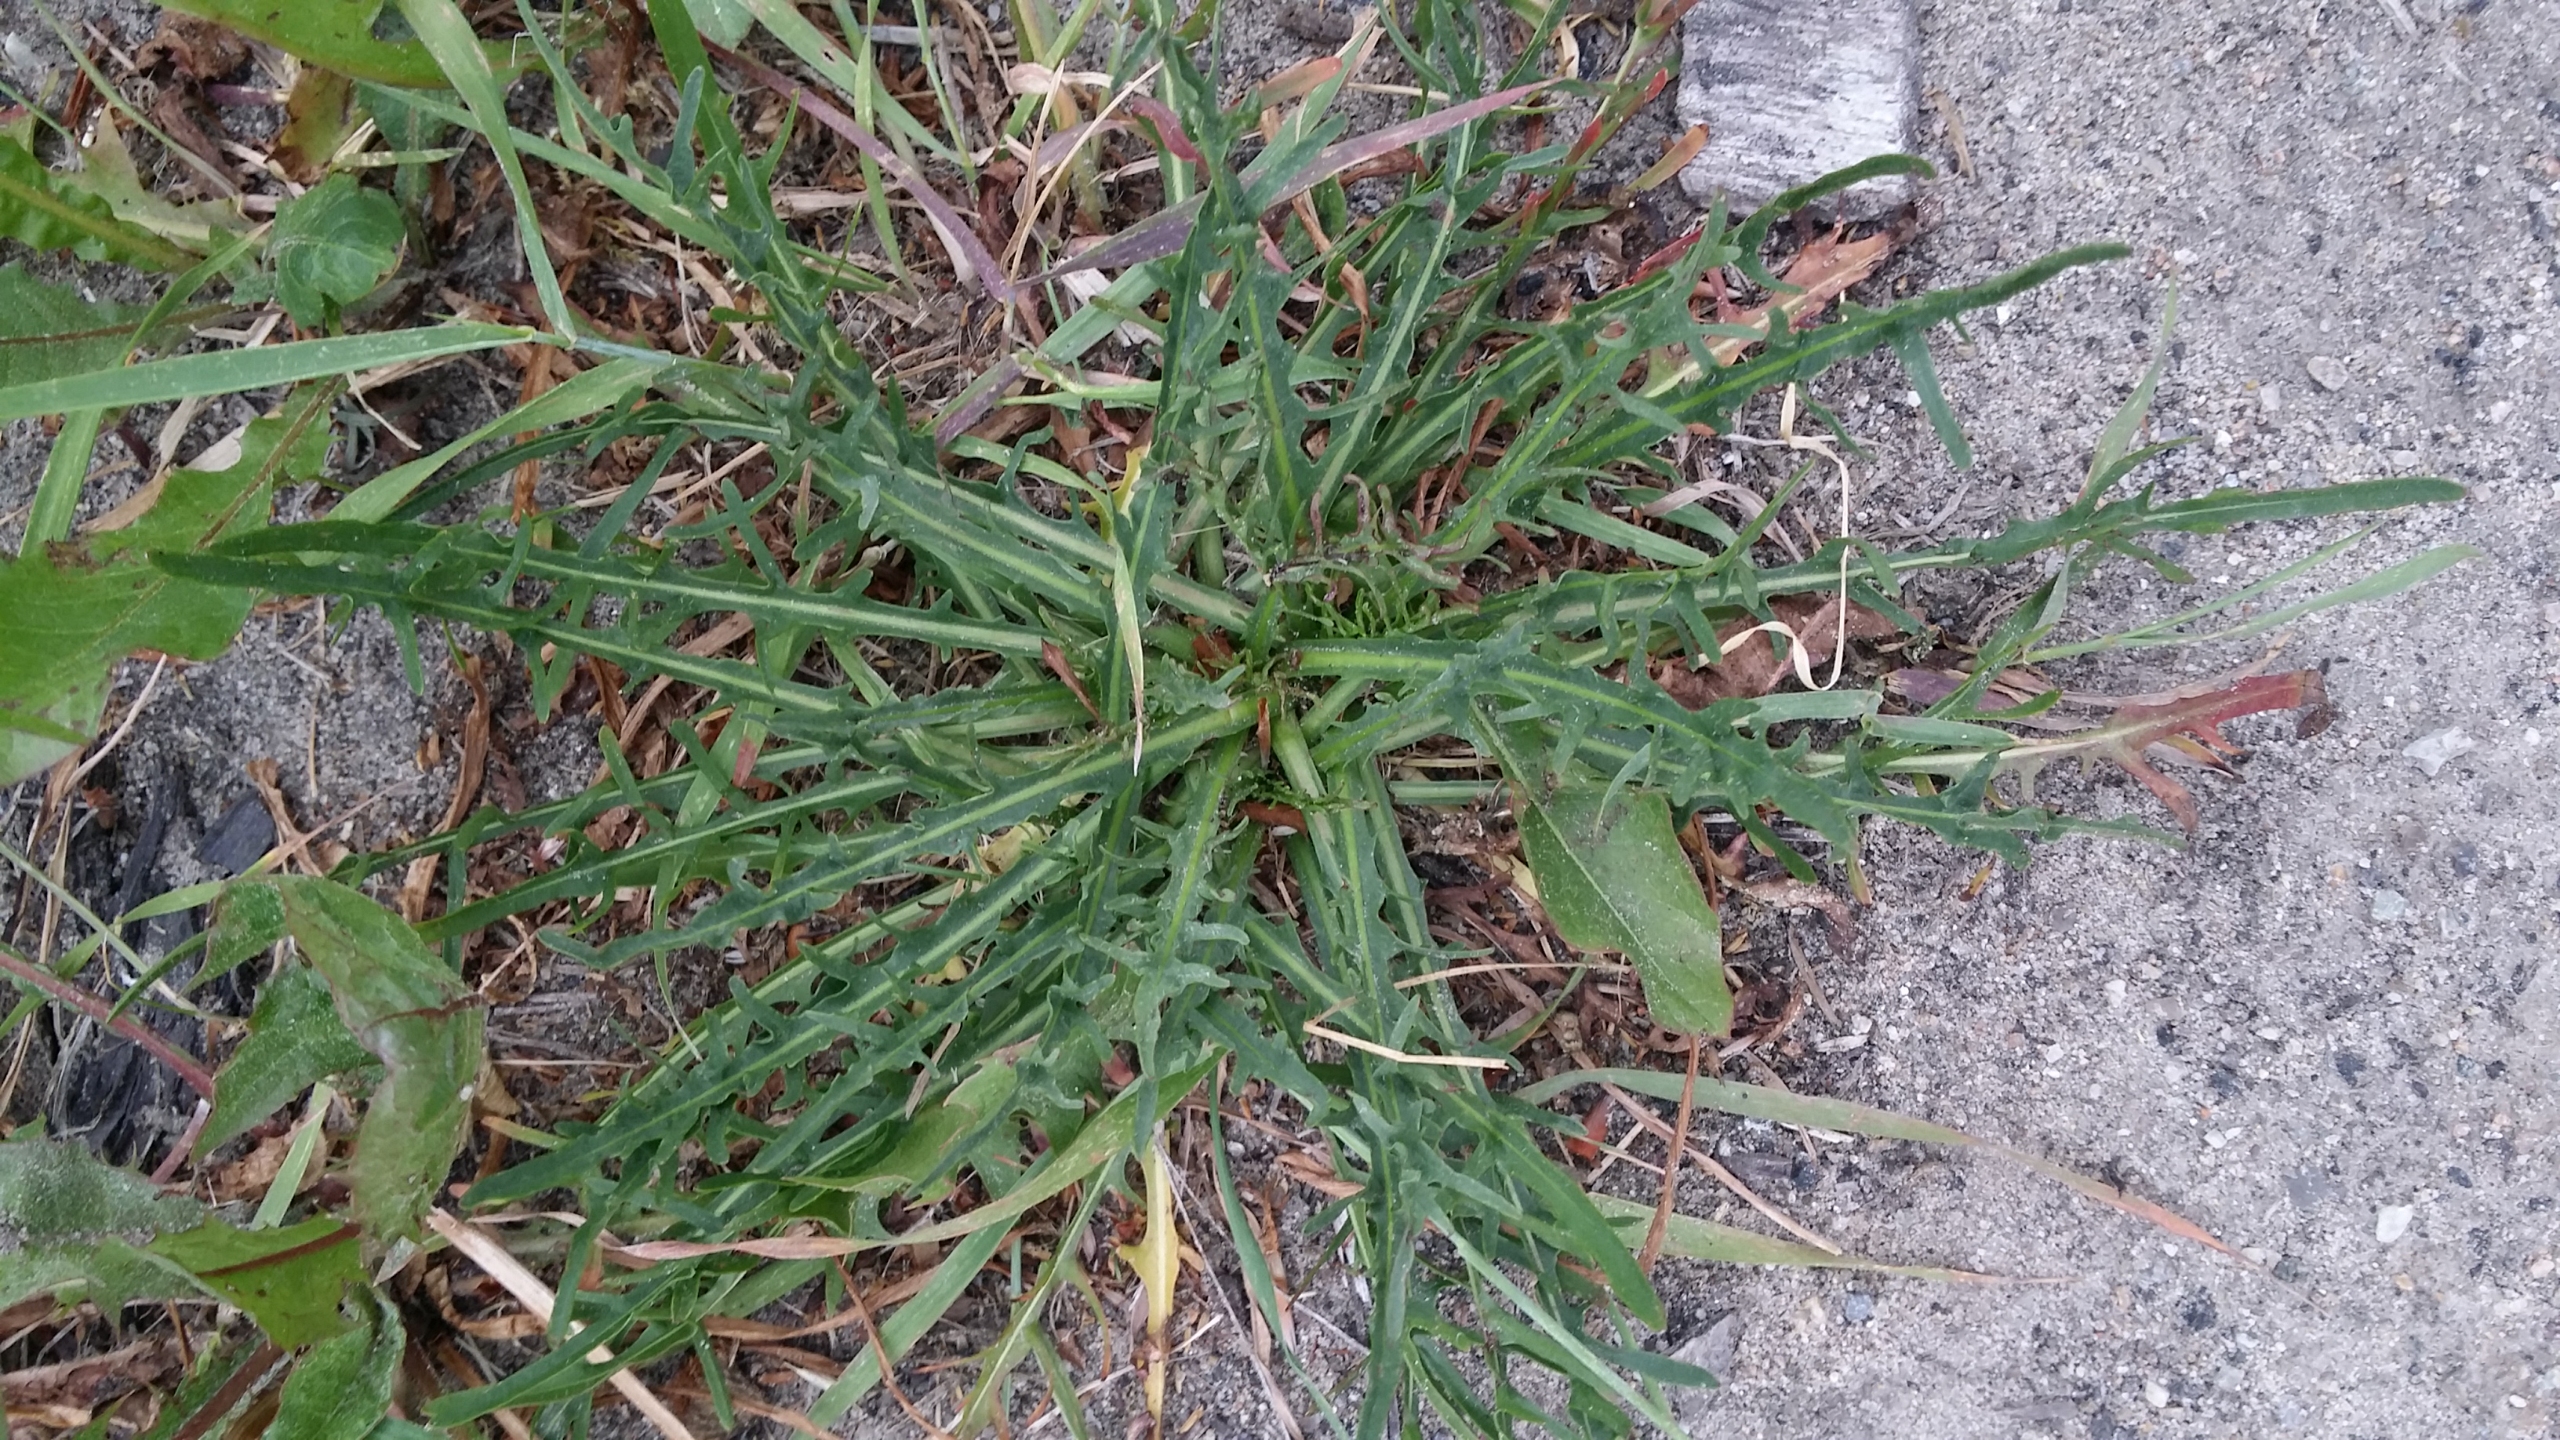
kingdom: Plantae
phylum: Tracheophyta
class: Magnoliopsida
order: Asterales
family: Asteraceae
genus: Scorzoneroides
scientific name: Scorzoneroides autumnalis
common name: Høst-borst
